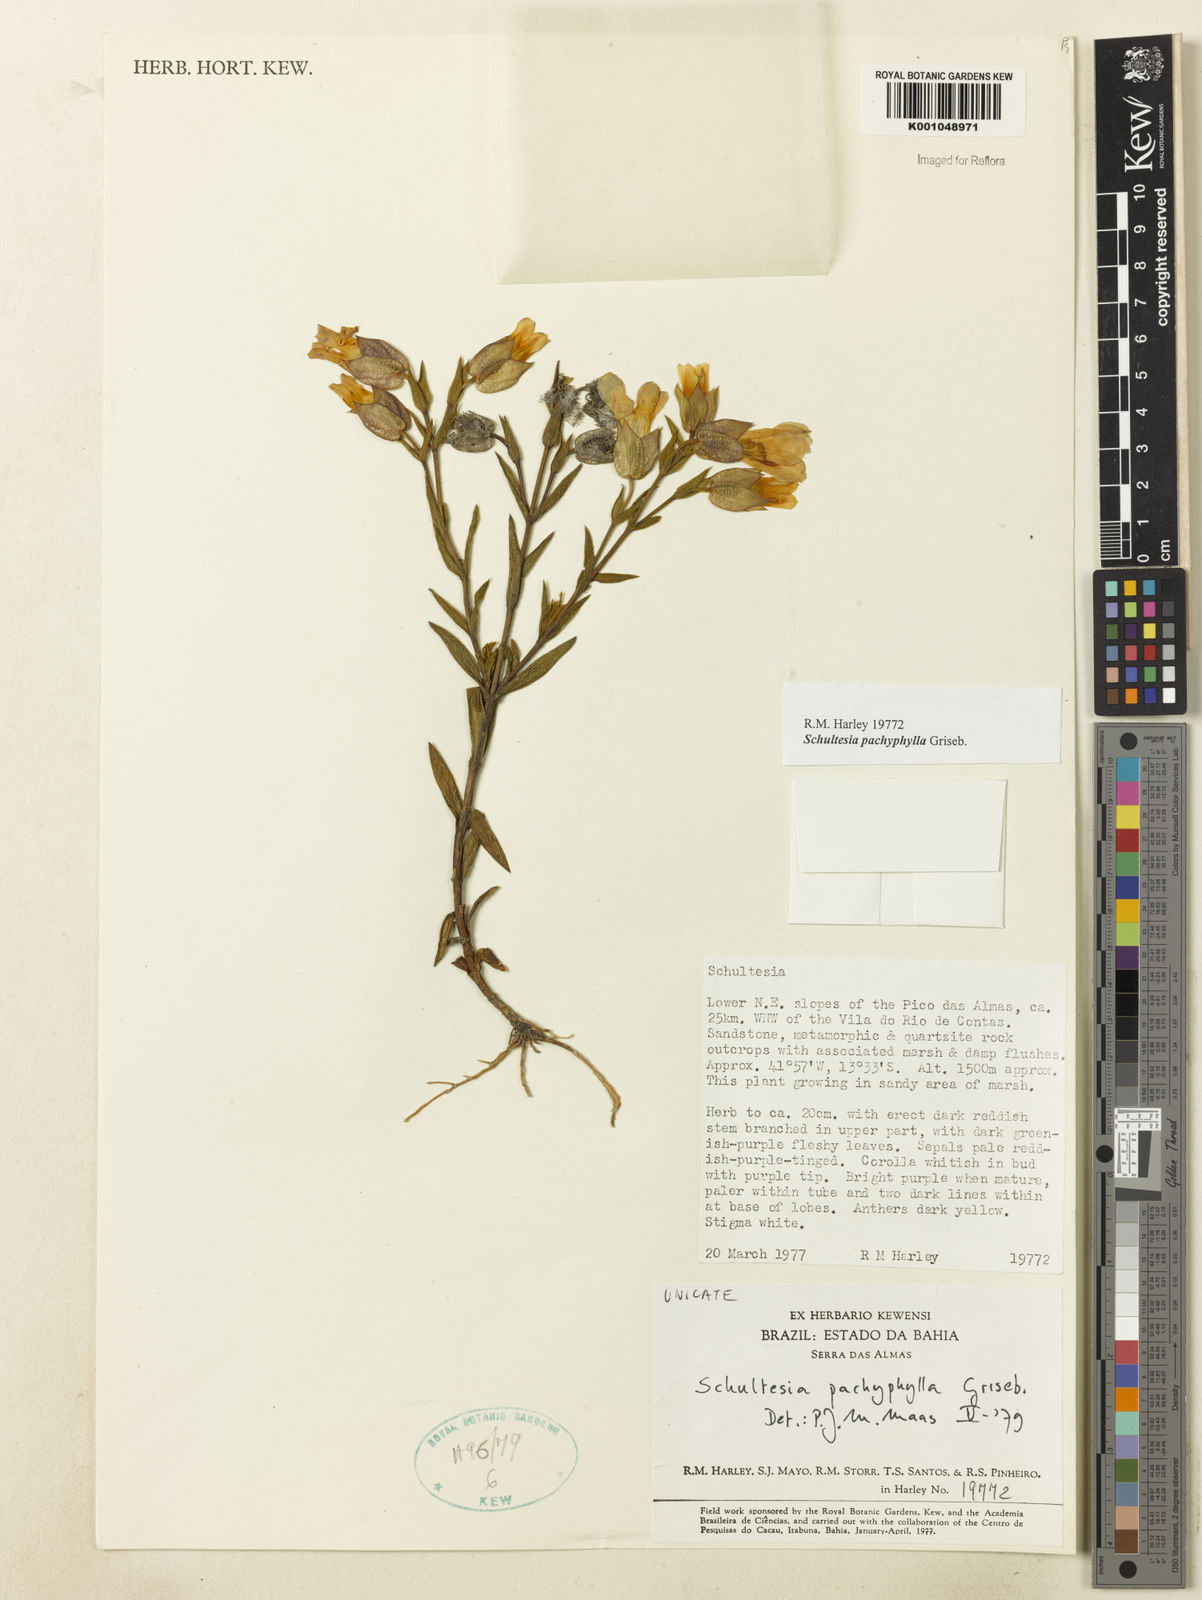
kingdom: Plantae
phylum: Tracheophyta
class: Magnoliopsida
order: Gentianales
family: Gentianaceae
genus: Schultesia
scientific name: Schultesia pachyphylla
